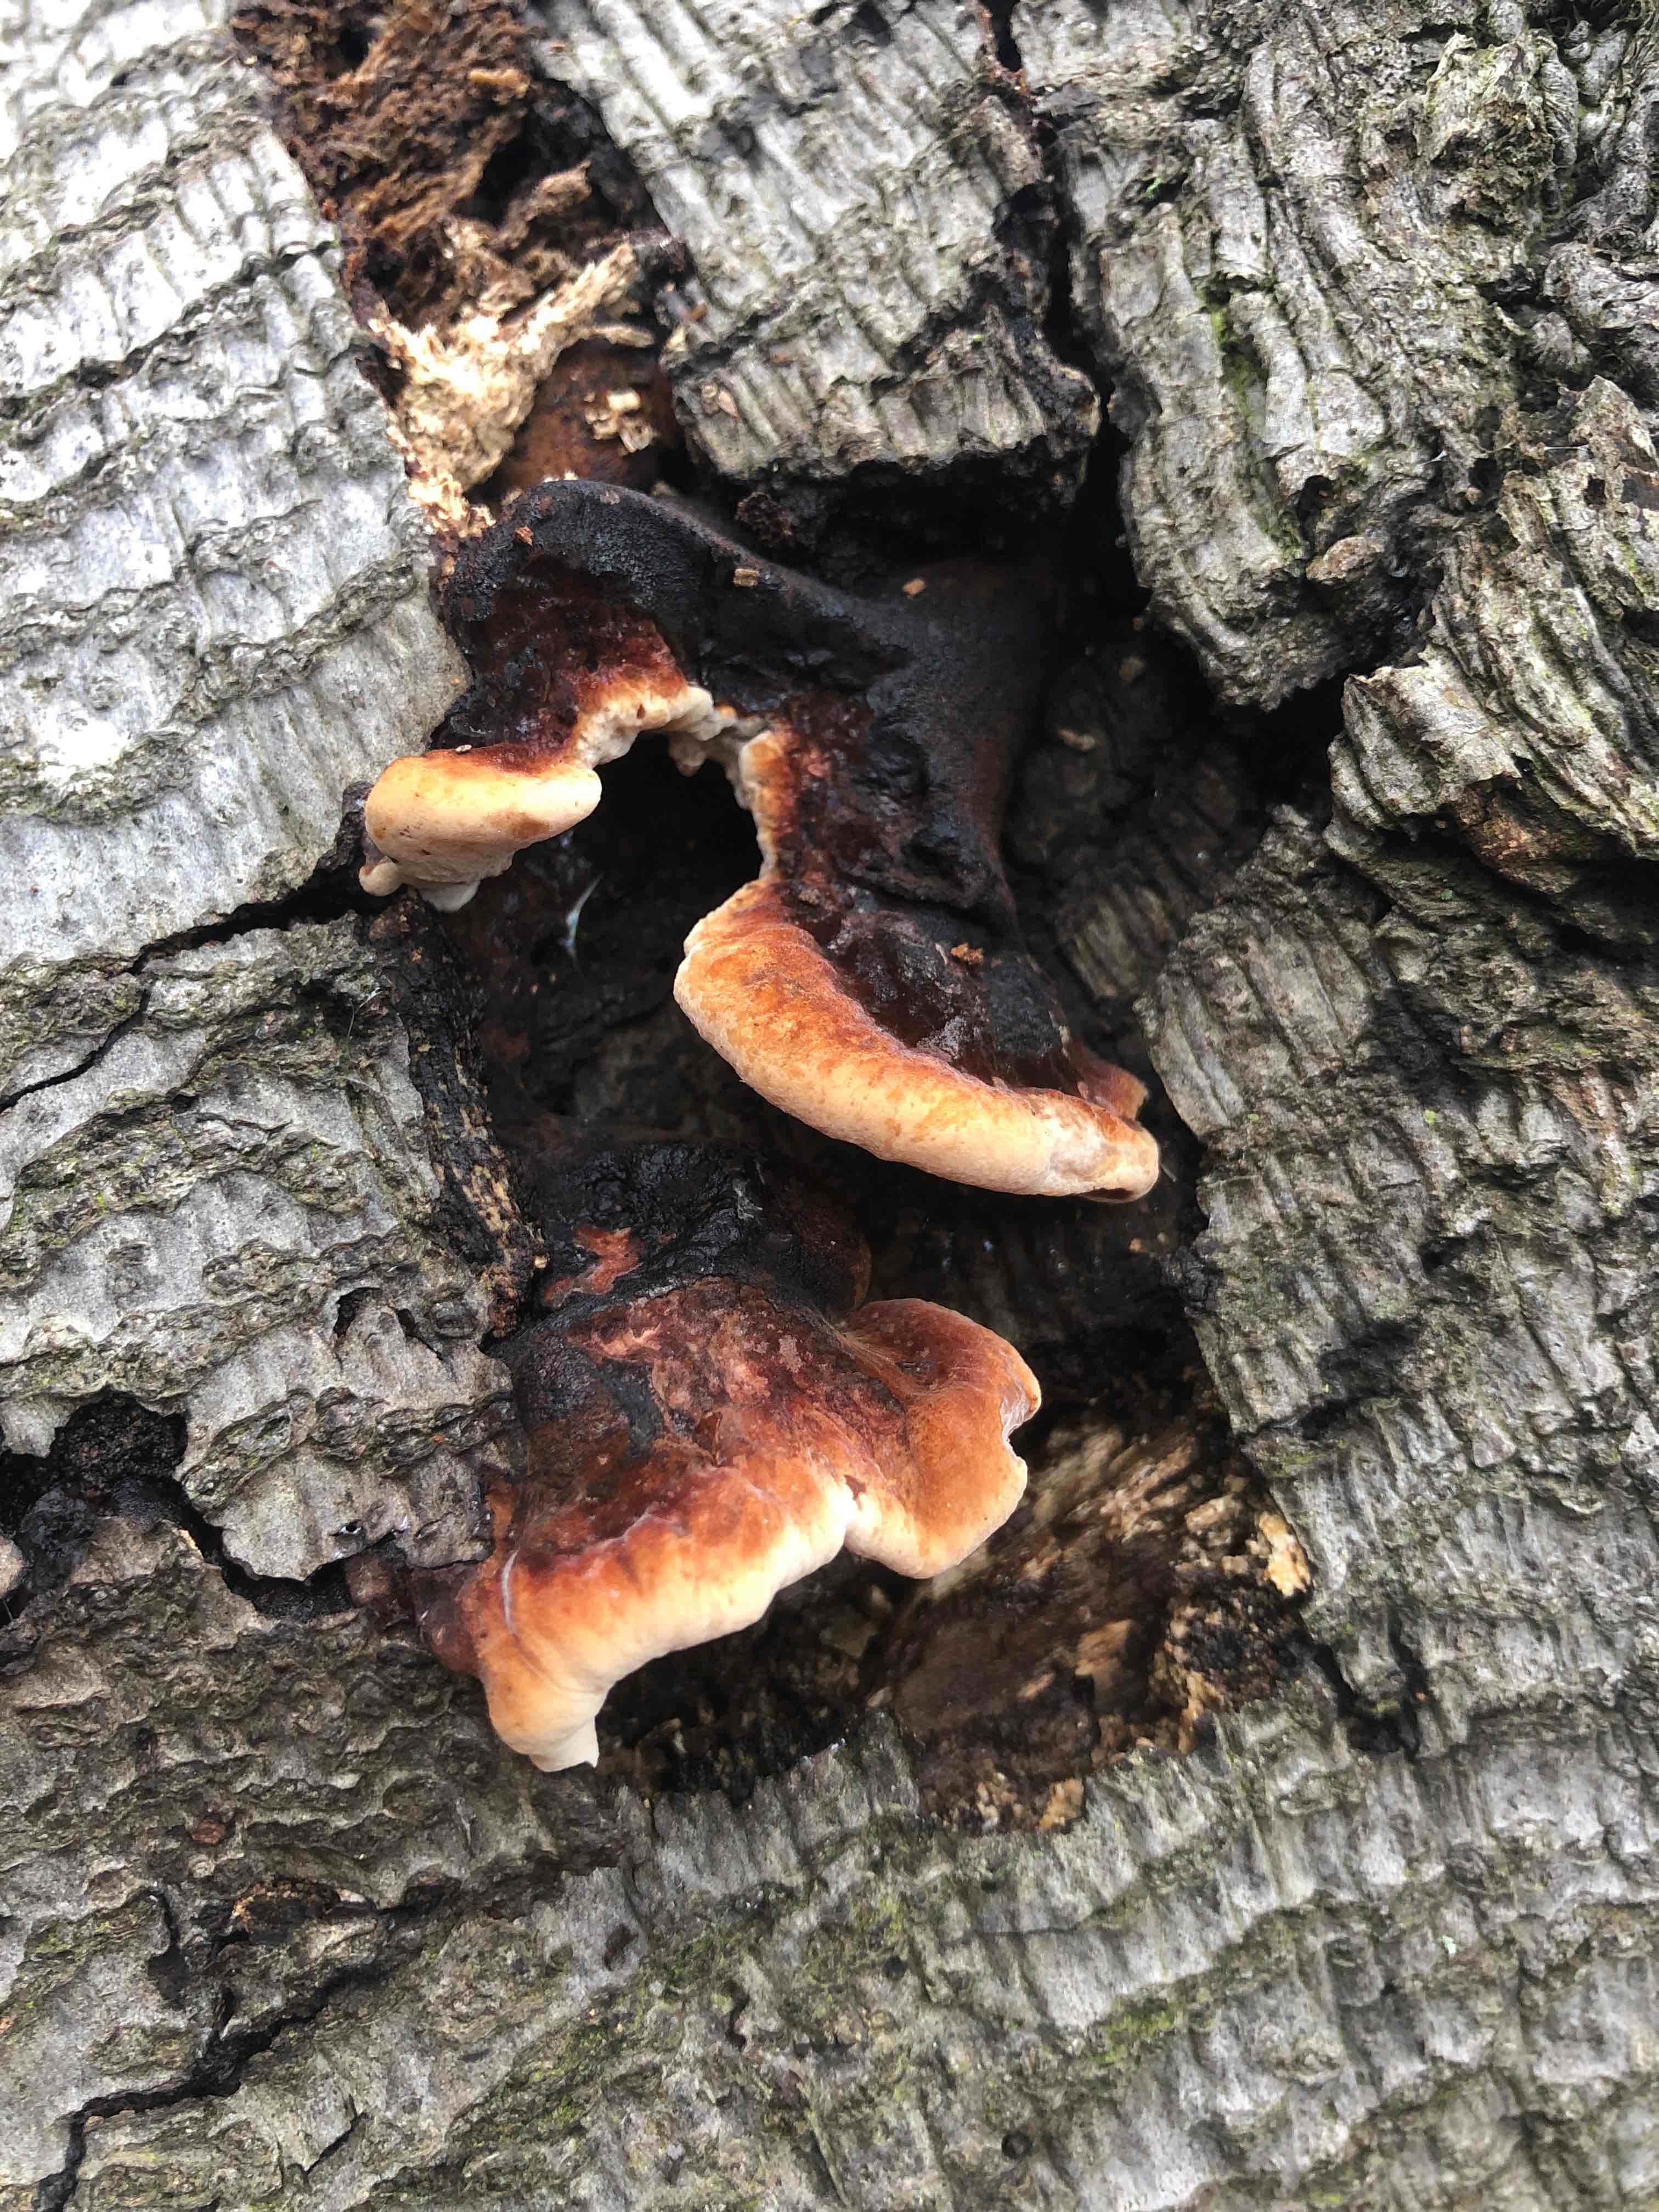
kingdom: Fungi
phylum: Basidiomycota
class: Agaricomycetes
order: Polyporales
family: Ischnodermataceae
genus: Ischnoderma
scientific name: Ischnoderma resinosum
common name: løv-tjæreporesvamp
